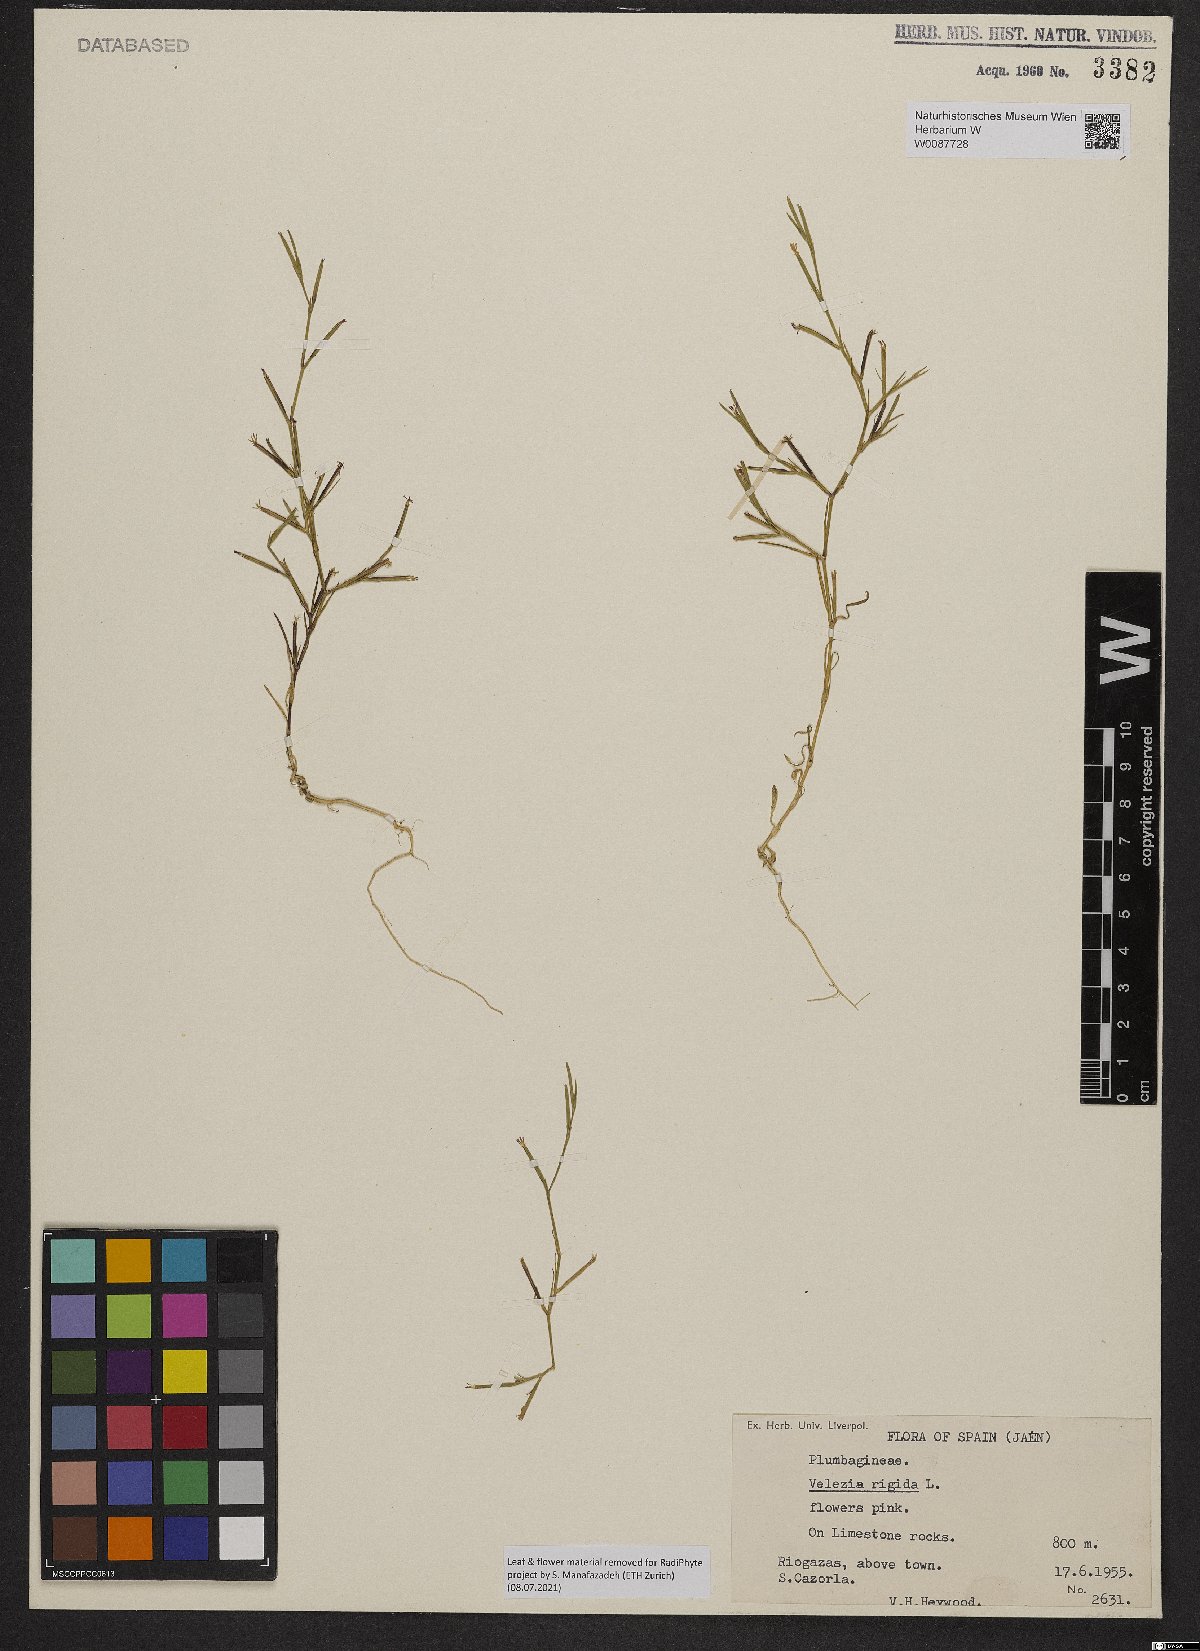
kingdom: Plantae
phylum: Tracheophyta
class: Magnoliopsida
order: Caryophyllales
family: Caryophyllaceae
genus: Dianthus
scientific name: Dianthus nudiflorus
